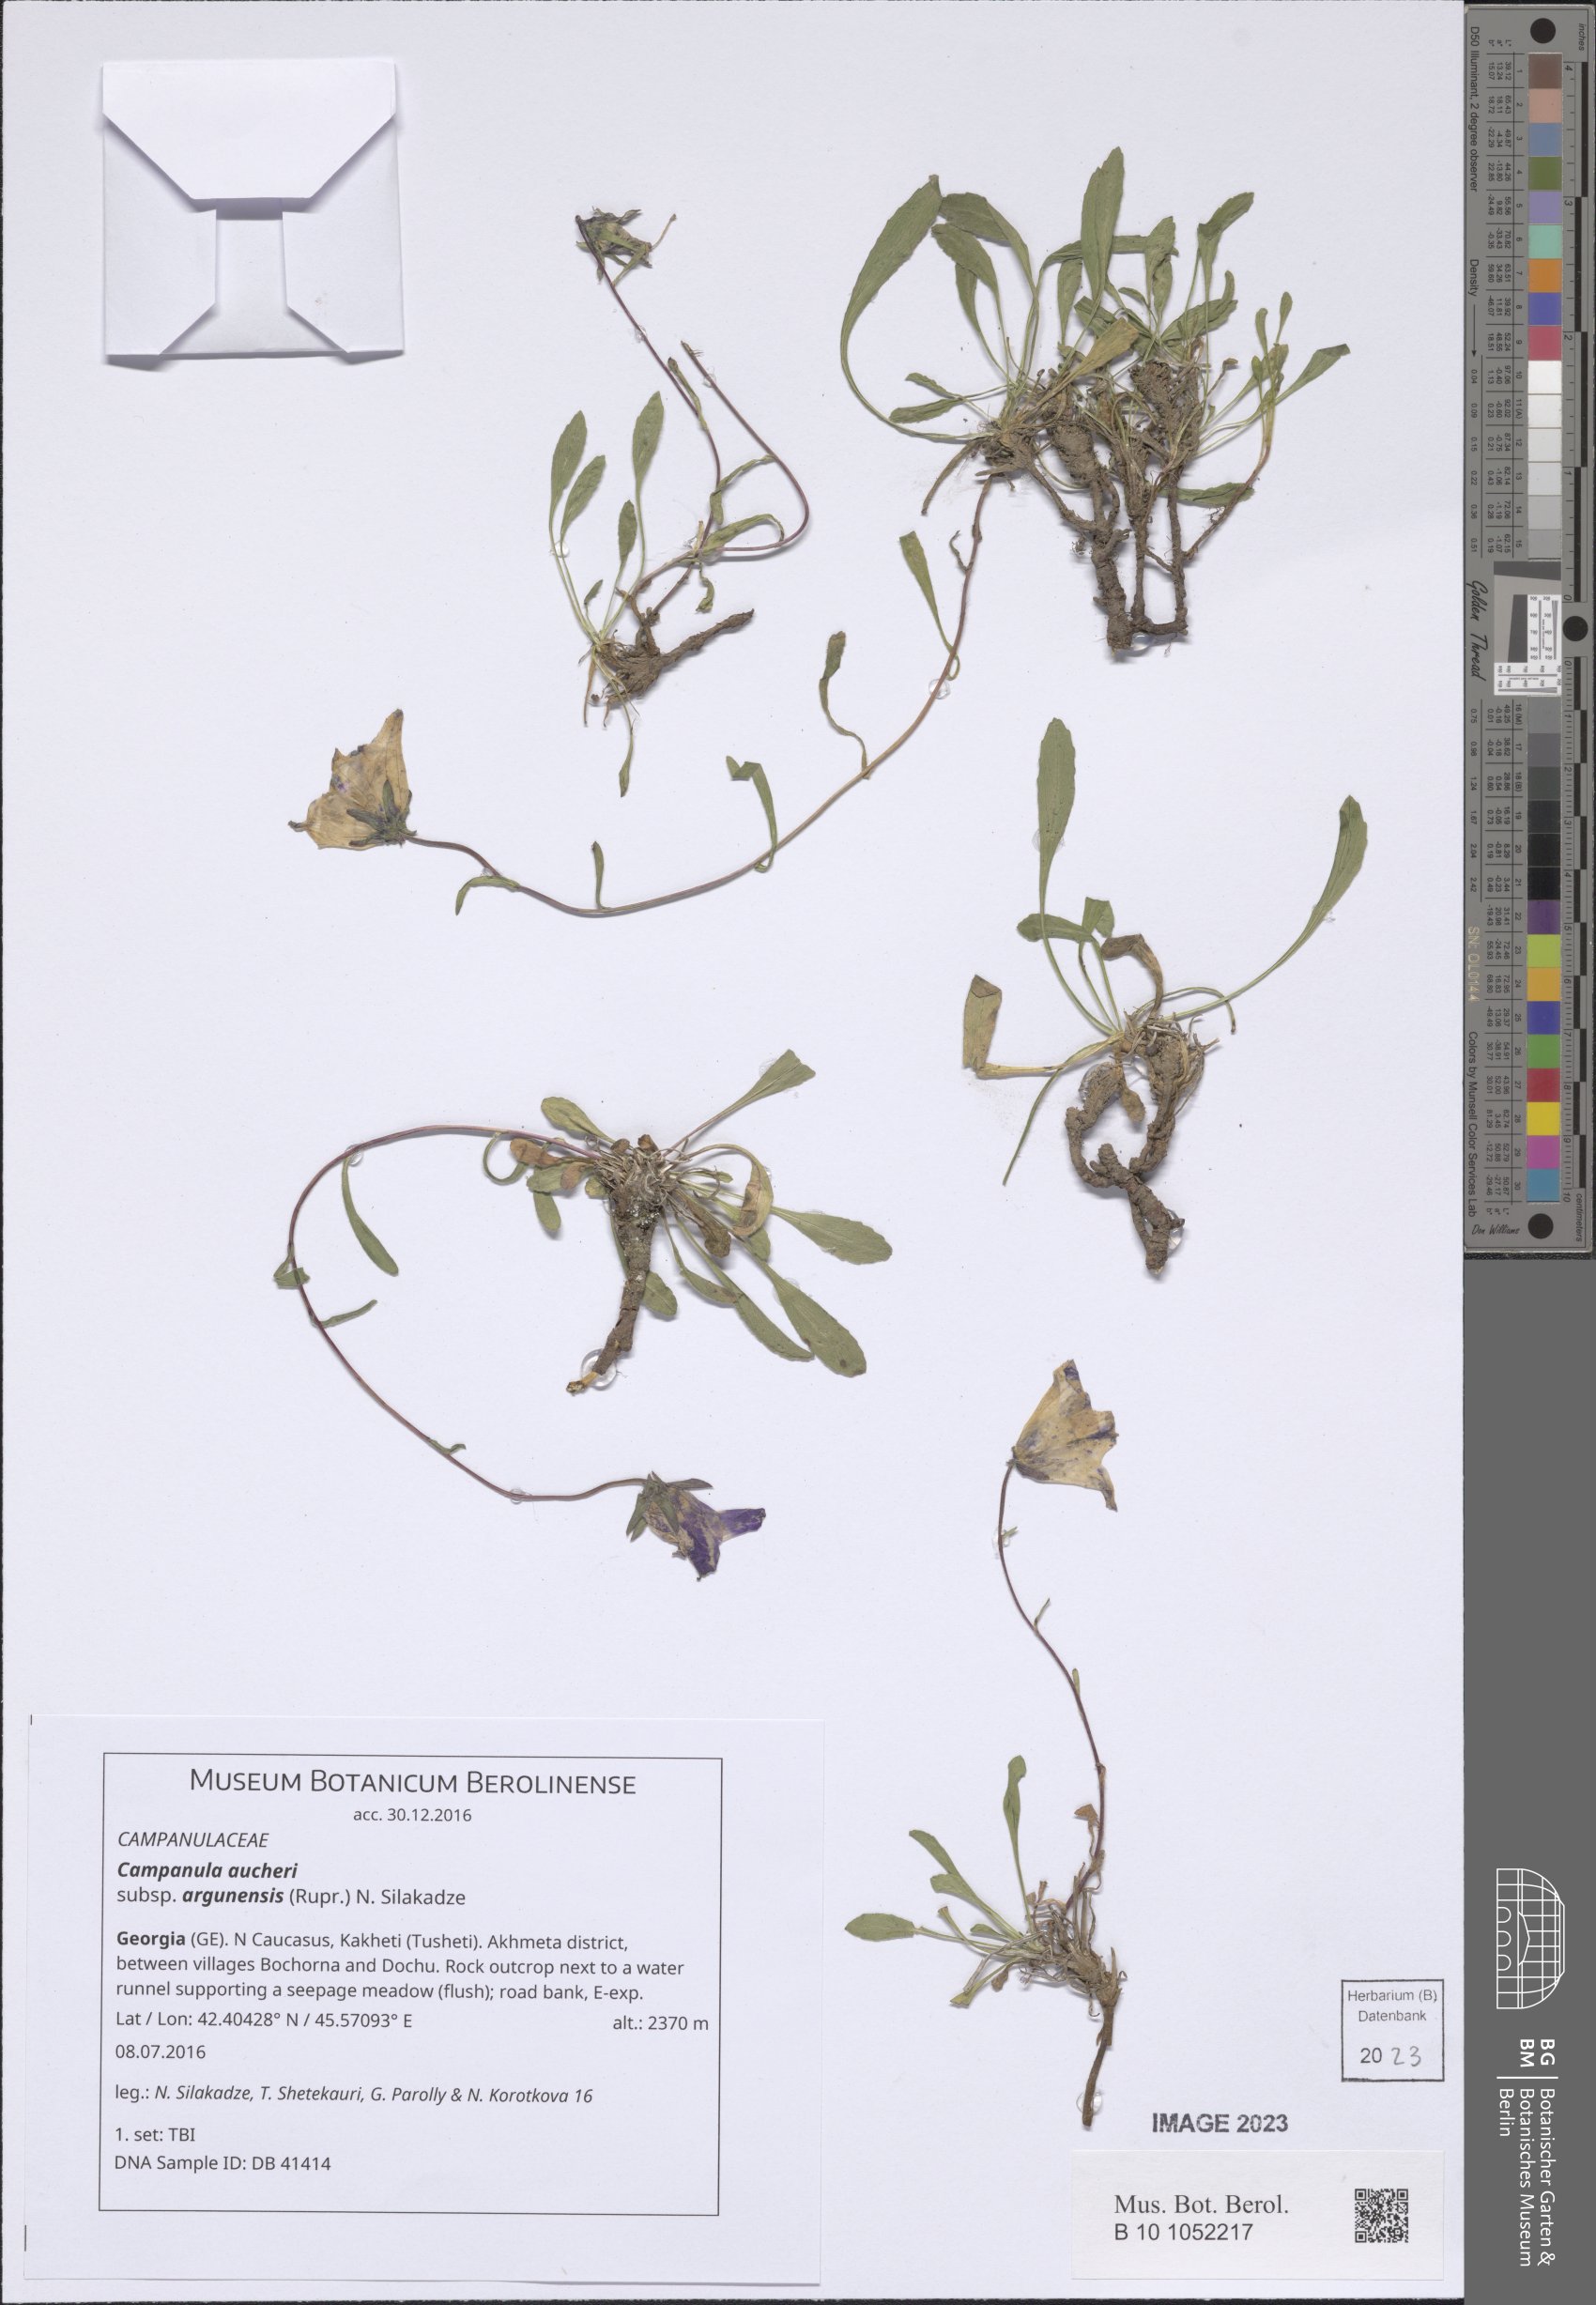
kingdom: Plantae
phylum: Tracheophyta
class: Magnoliopsida
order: Asterales
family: Campanulaceae
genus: Campanula
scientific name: Campanula saxifraga
